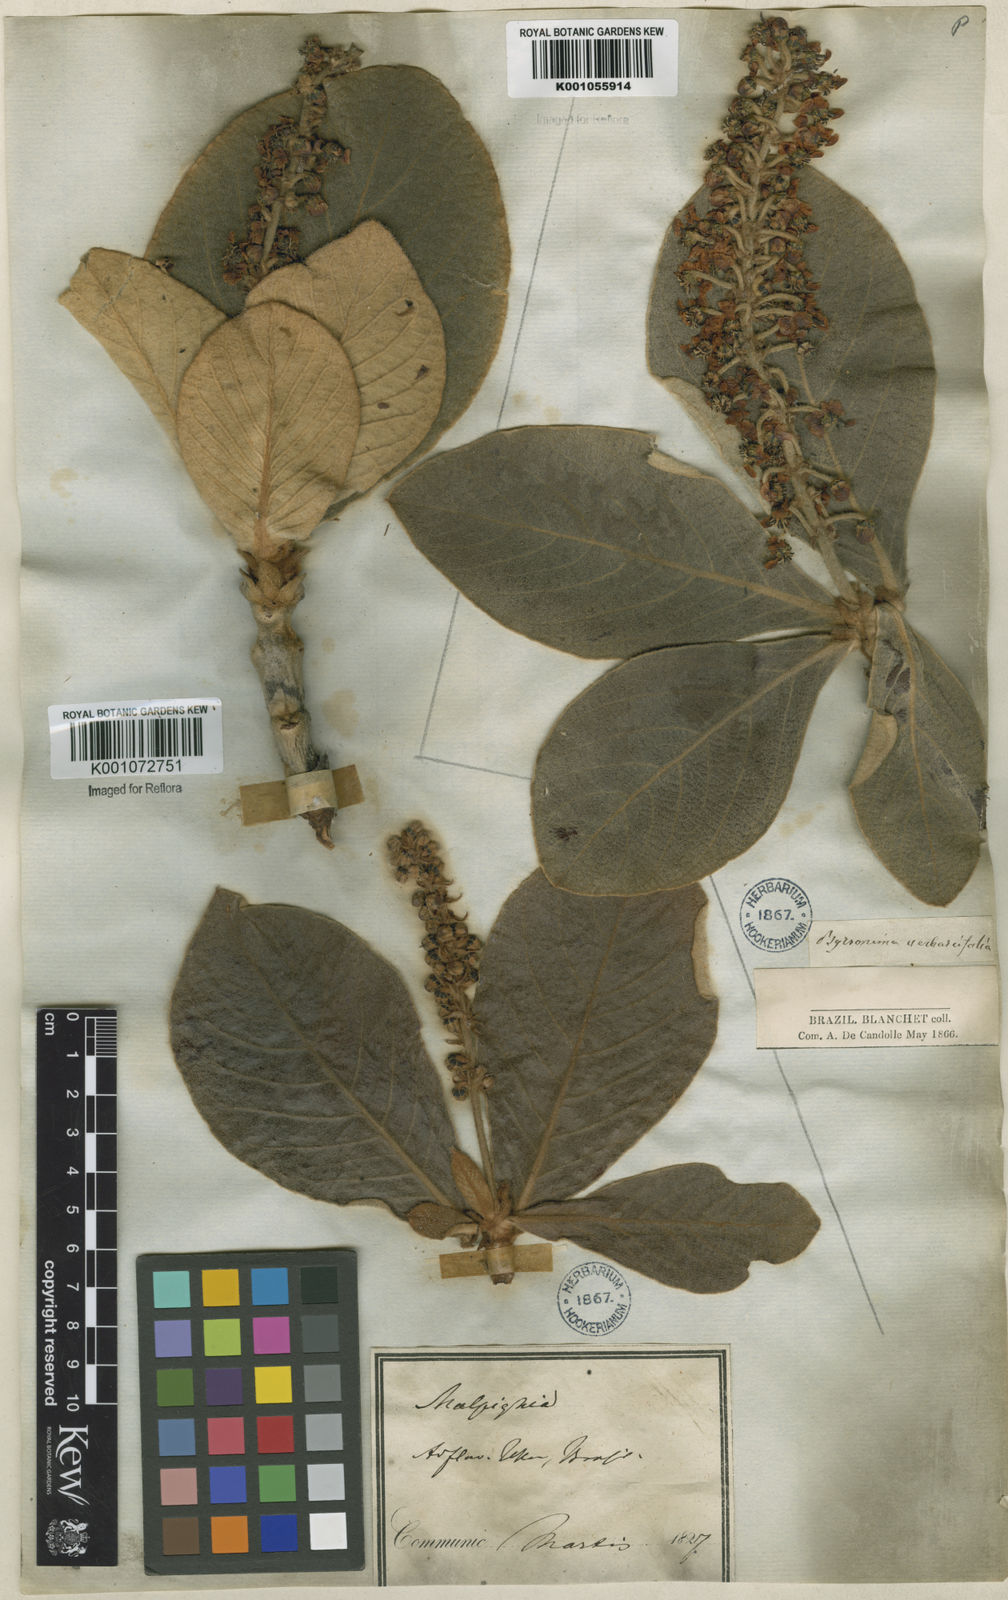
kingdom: Plantae
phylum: Tracheophyta
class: Magnoliopsida
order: Malpighiales
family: Malpighiaceae
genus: Byrsonima
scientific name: Byrsonima verbascifolia
